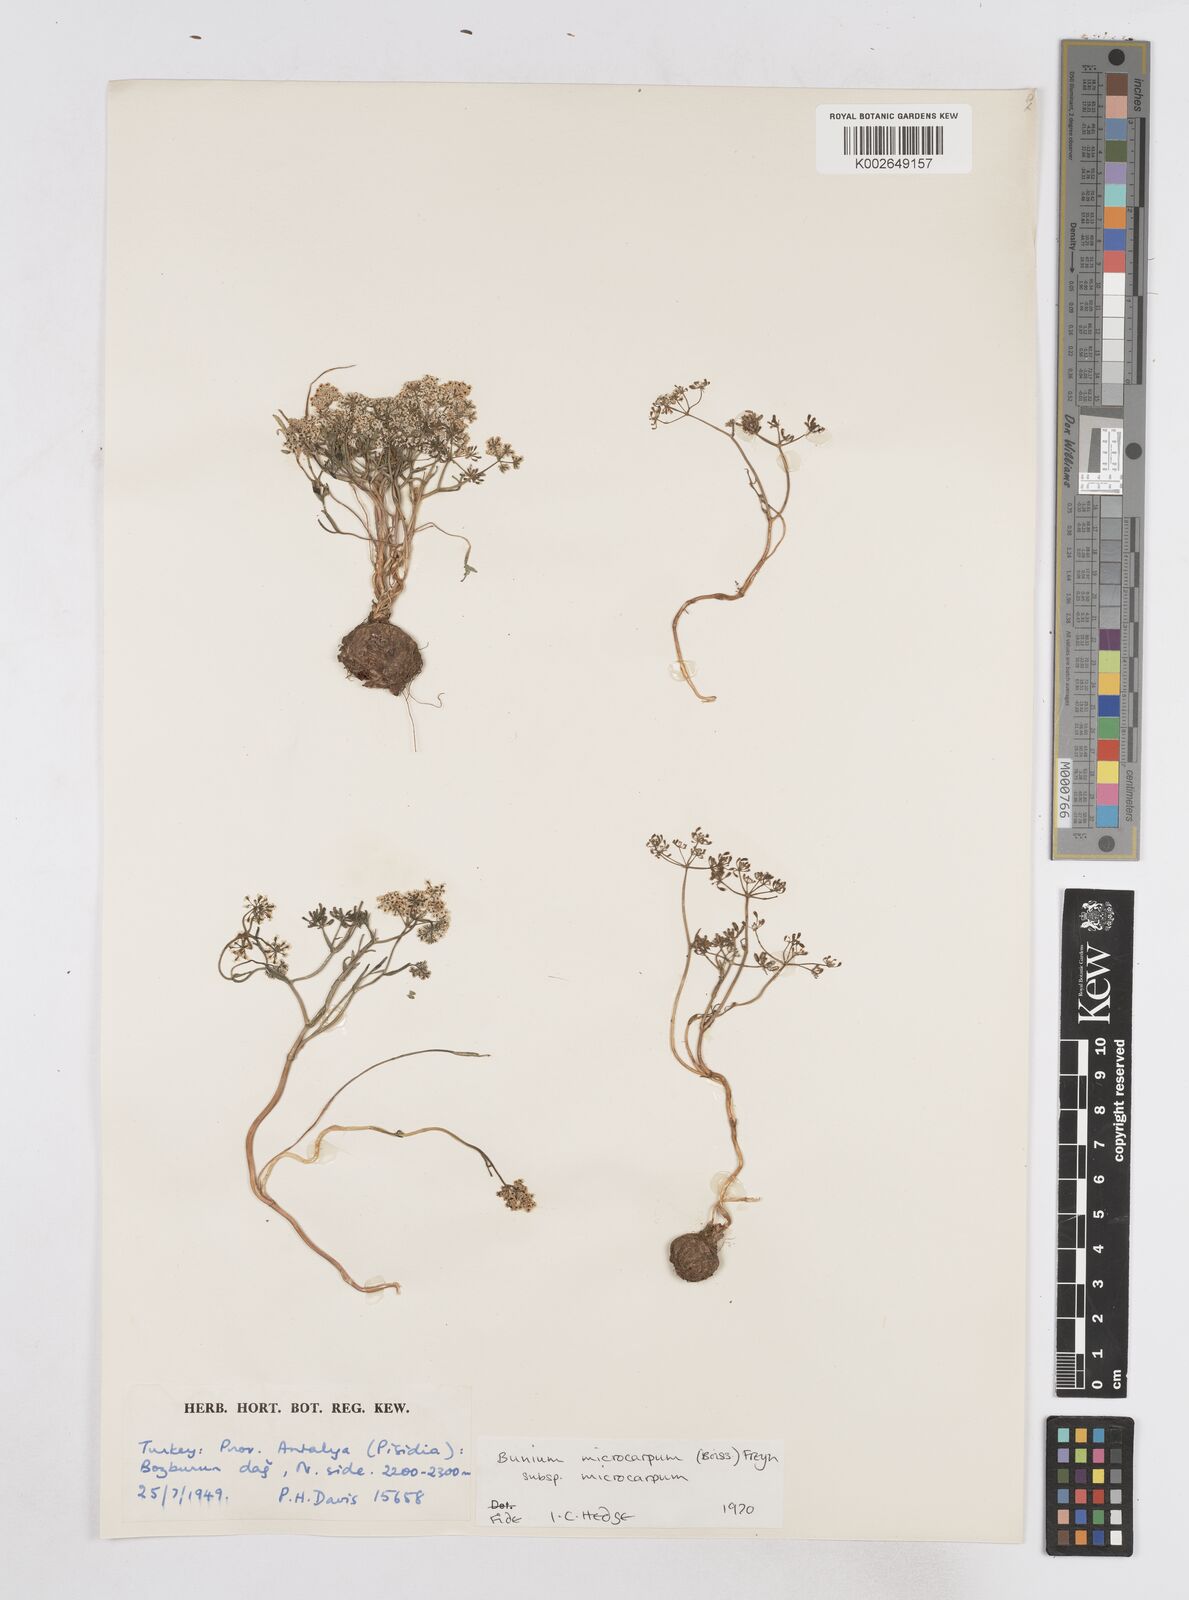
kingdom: Plantae
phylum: Tracheophyta
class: Magnoliopsida
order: Apiales
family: Apiaceae
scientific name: Apiaceae
